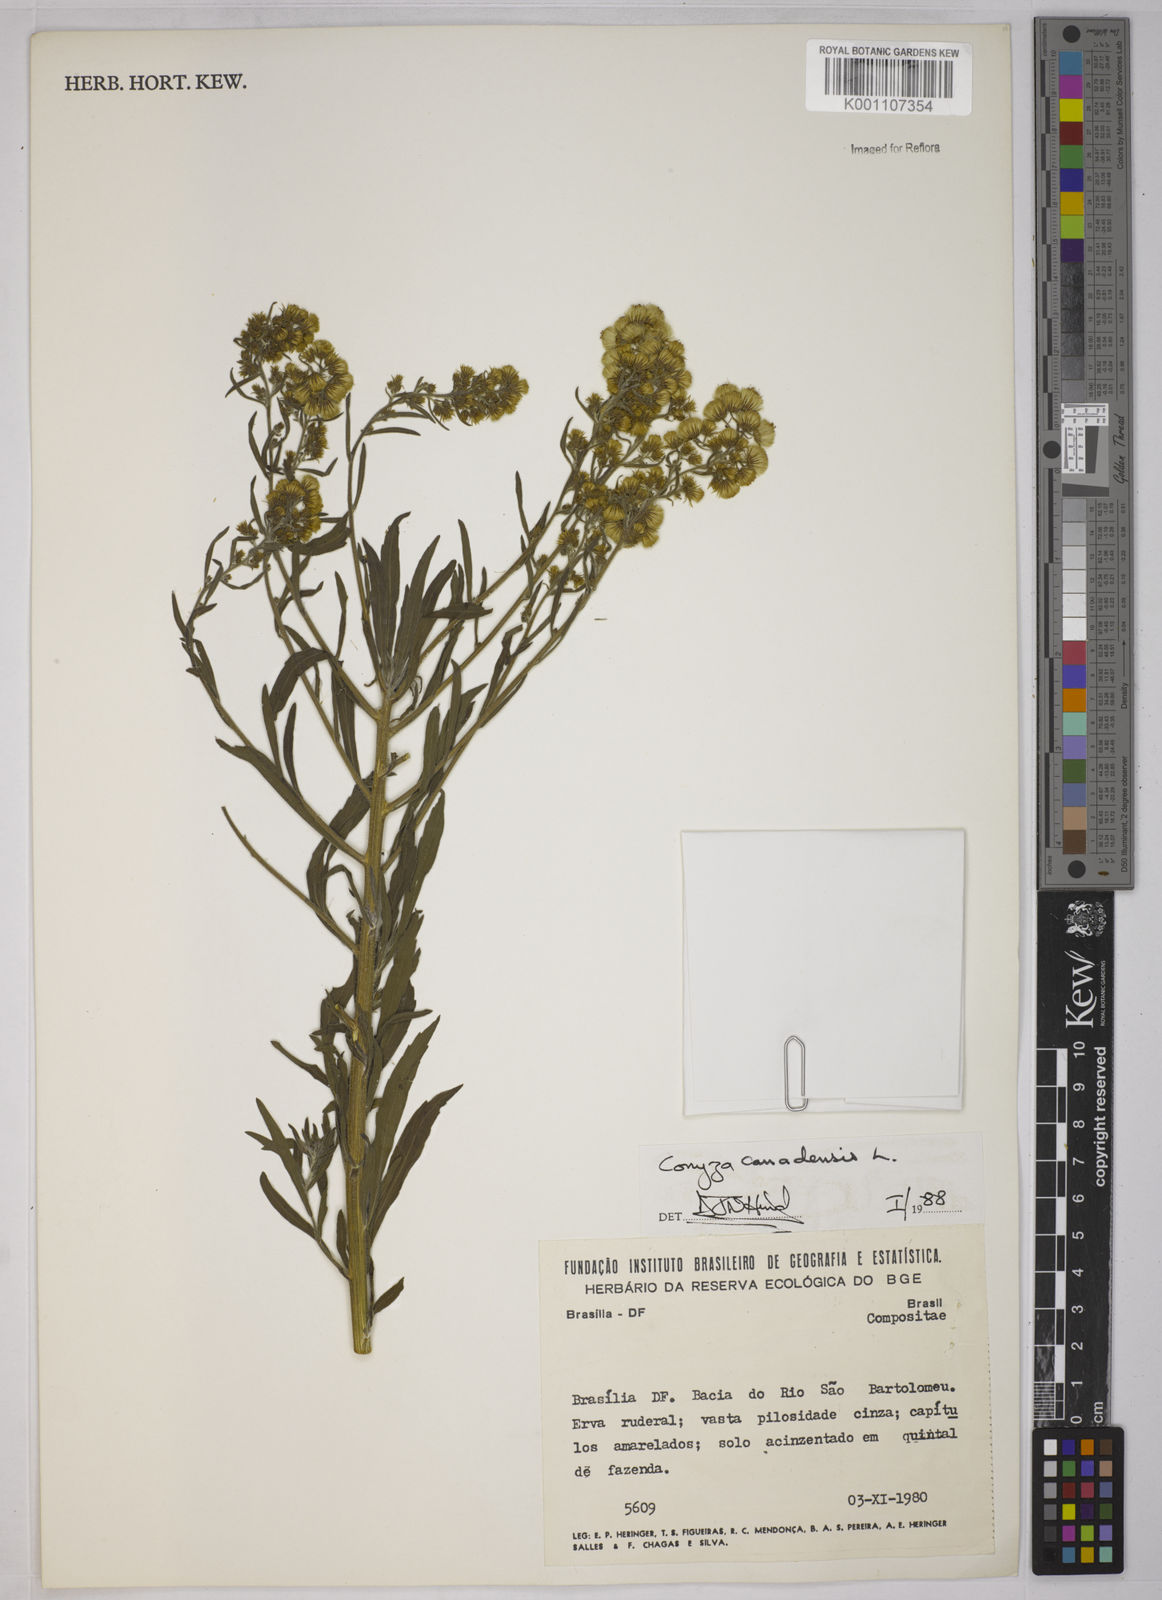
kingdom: Plantae
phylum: Tracheophyta
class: Magnoliopsida
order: Asterales
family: Asteraceae
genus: Erigeron
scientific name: Erigeron canadensis
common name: Canadian fleabane
